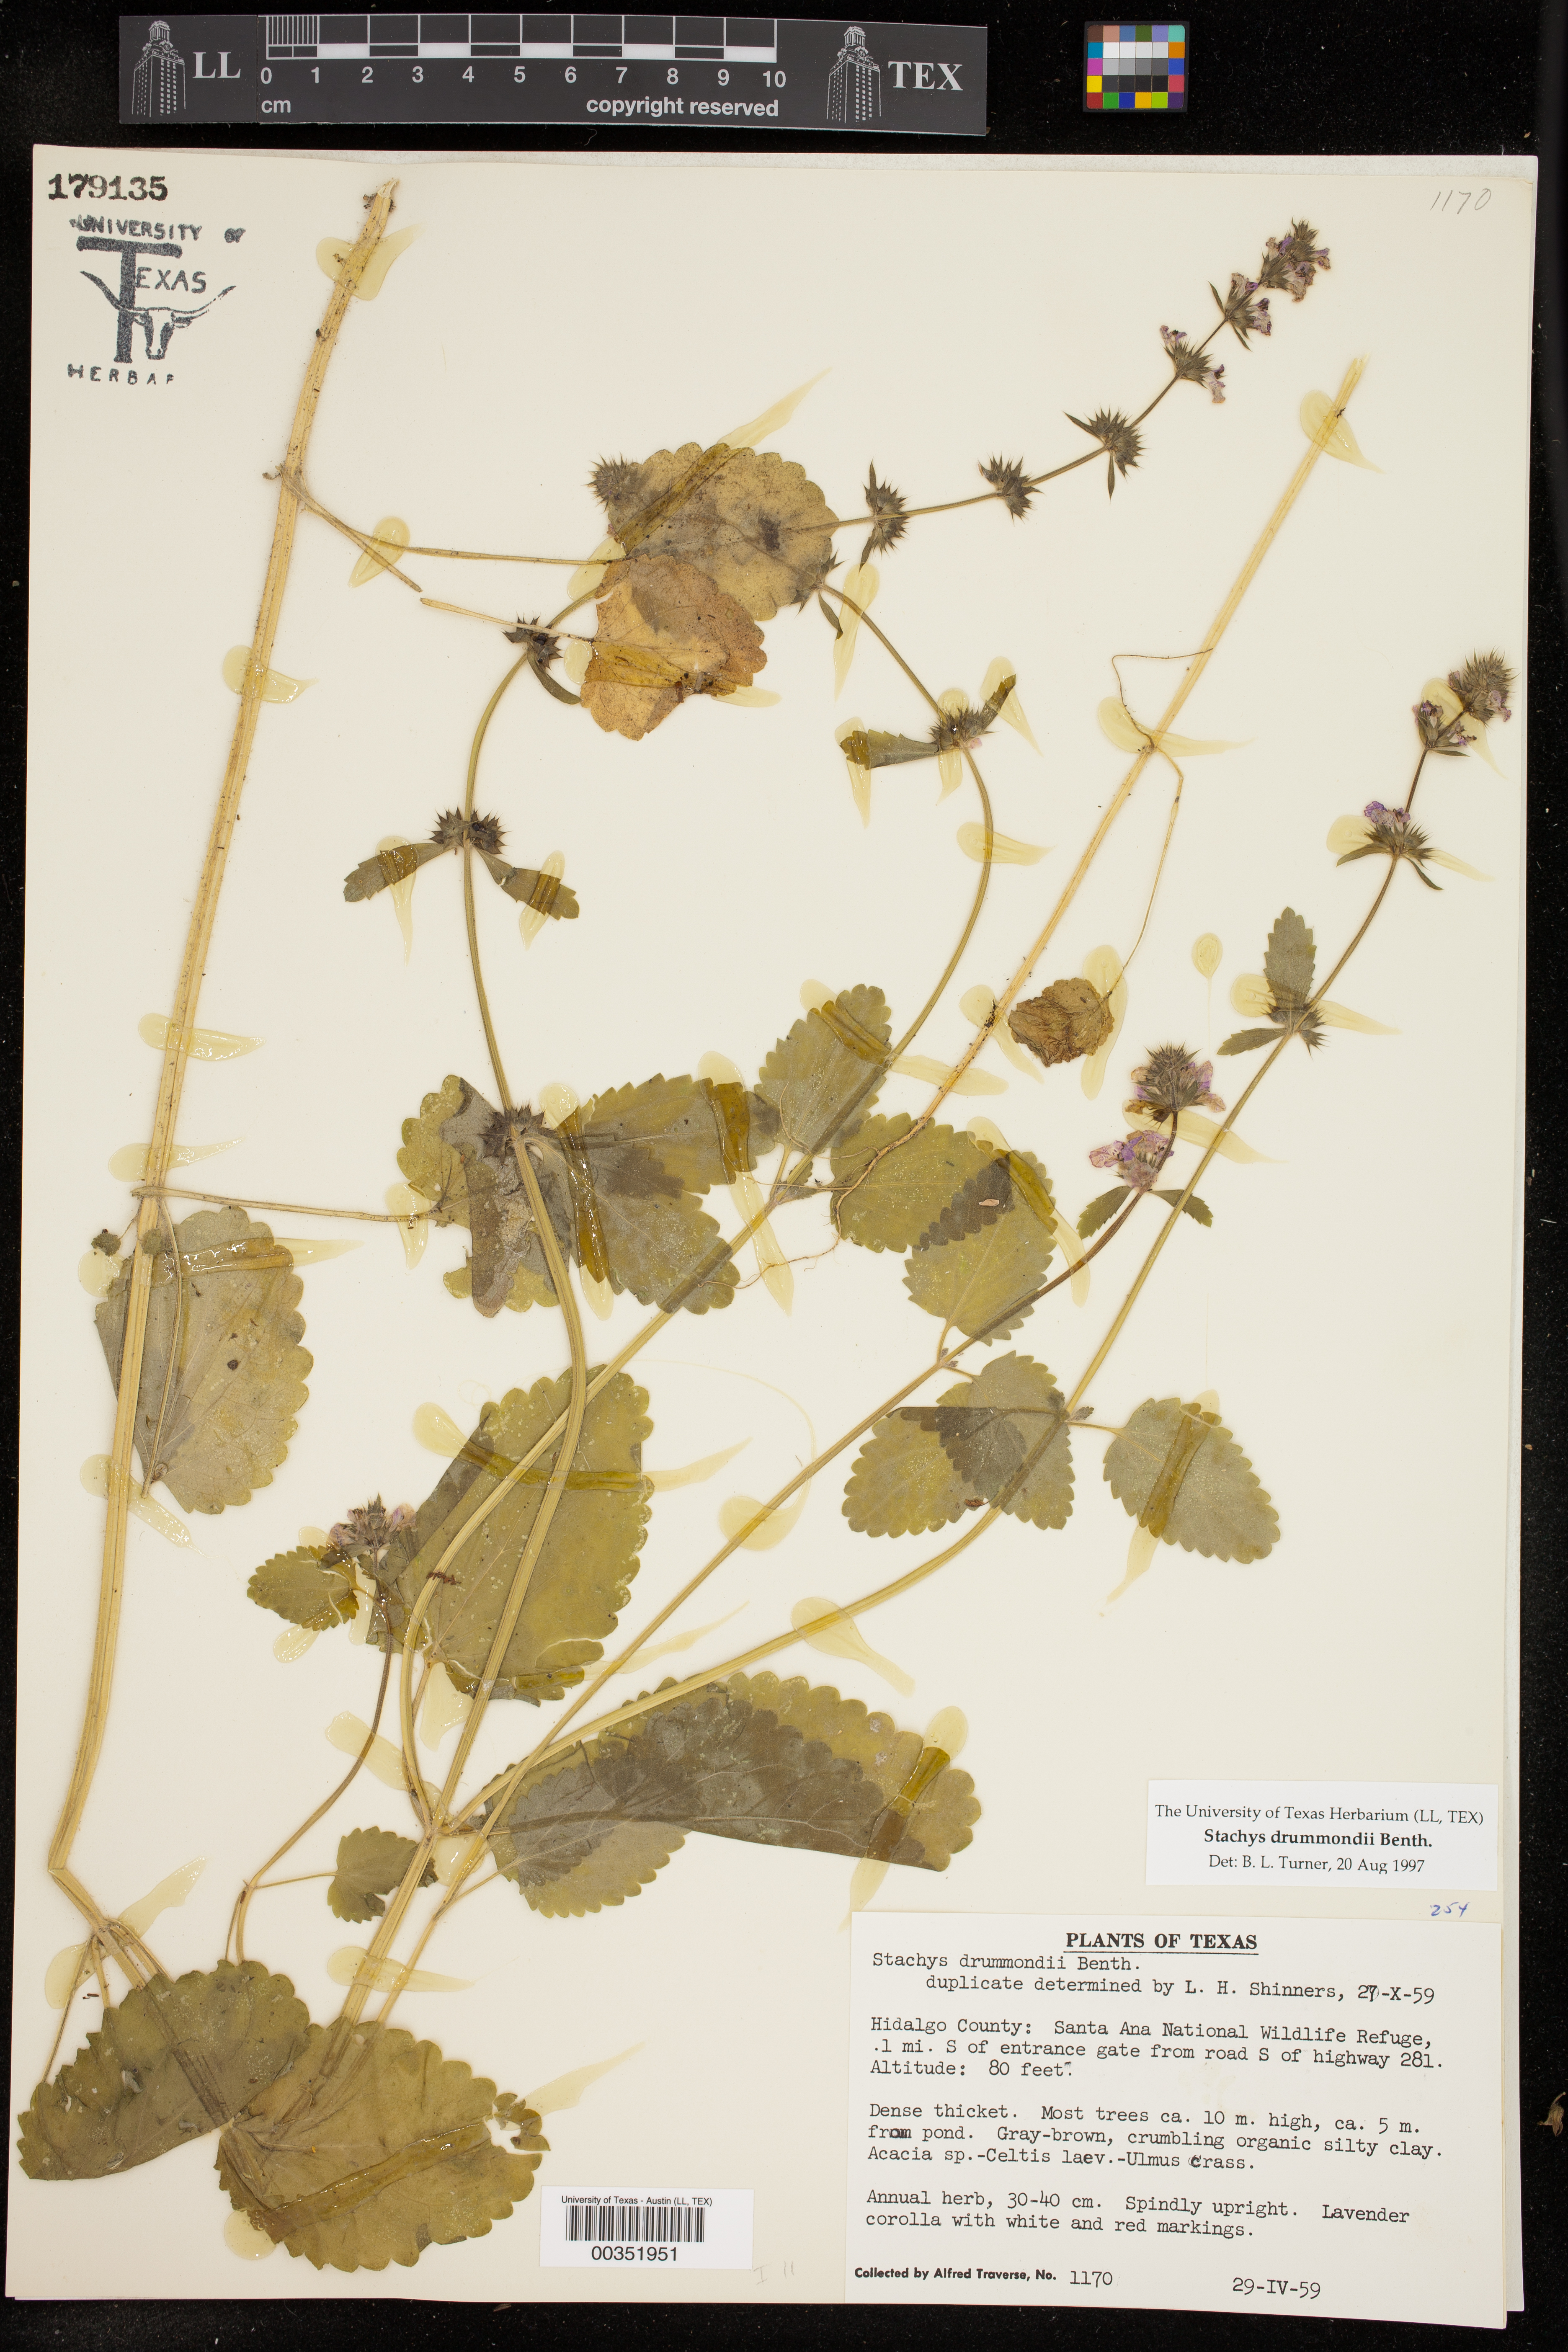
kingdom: Plantae
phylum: Tracheophyta
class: Magnoliopsida
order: Lamiales
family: Lamiaceae
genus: Stachys
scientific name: Stachys drummondii
